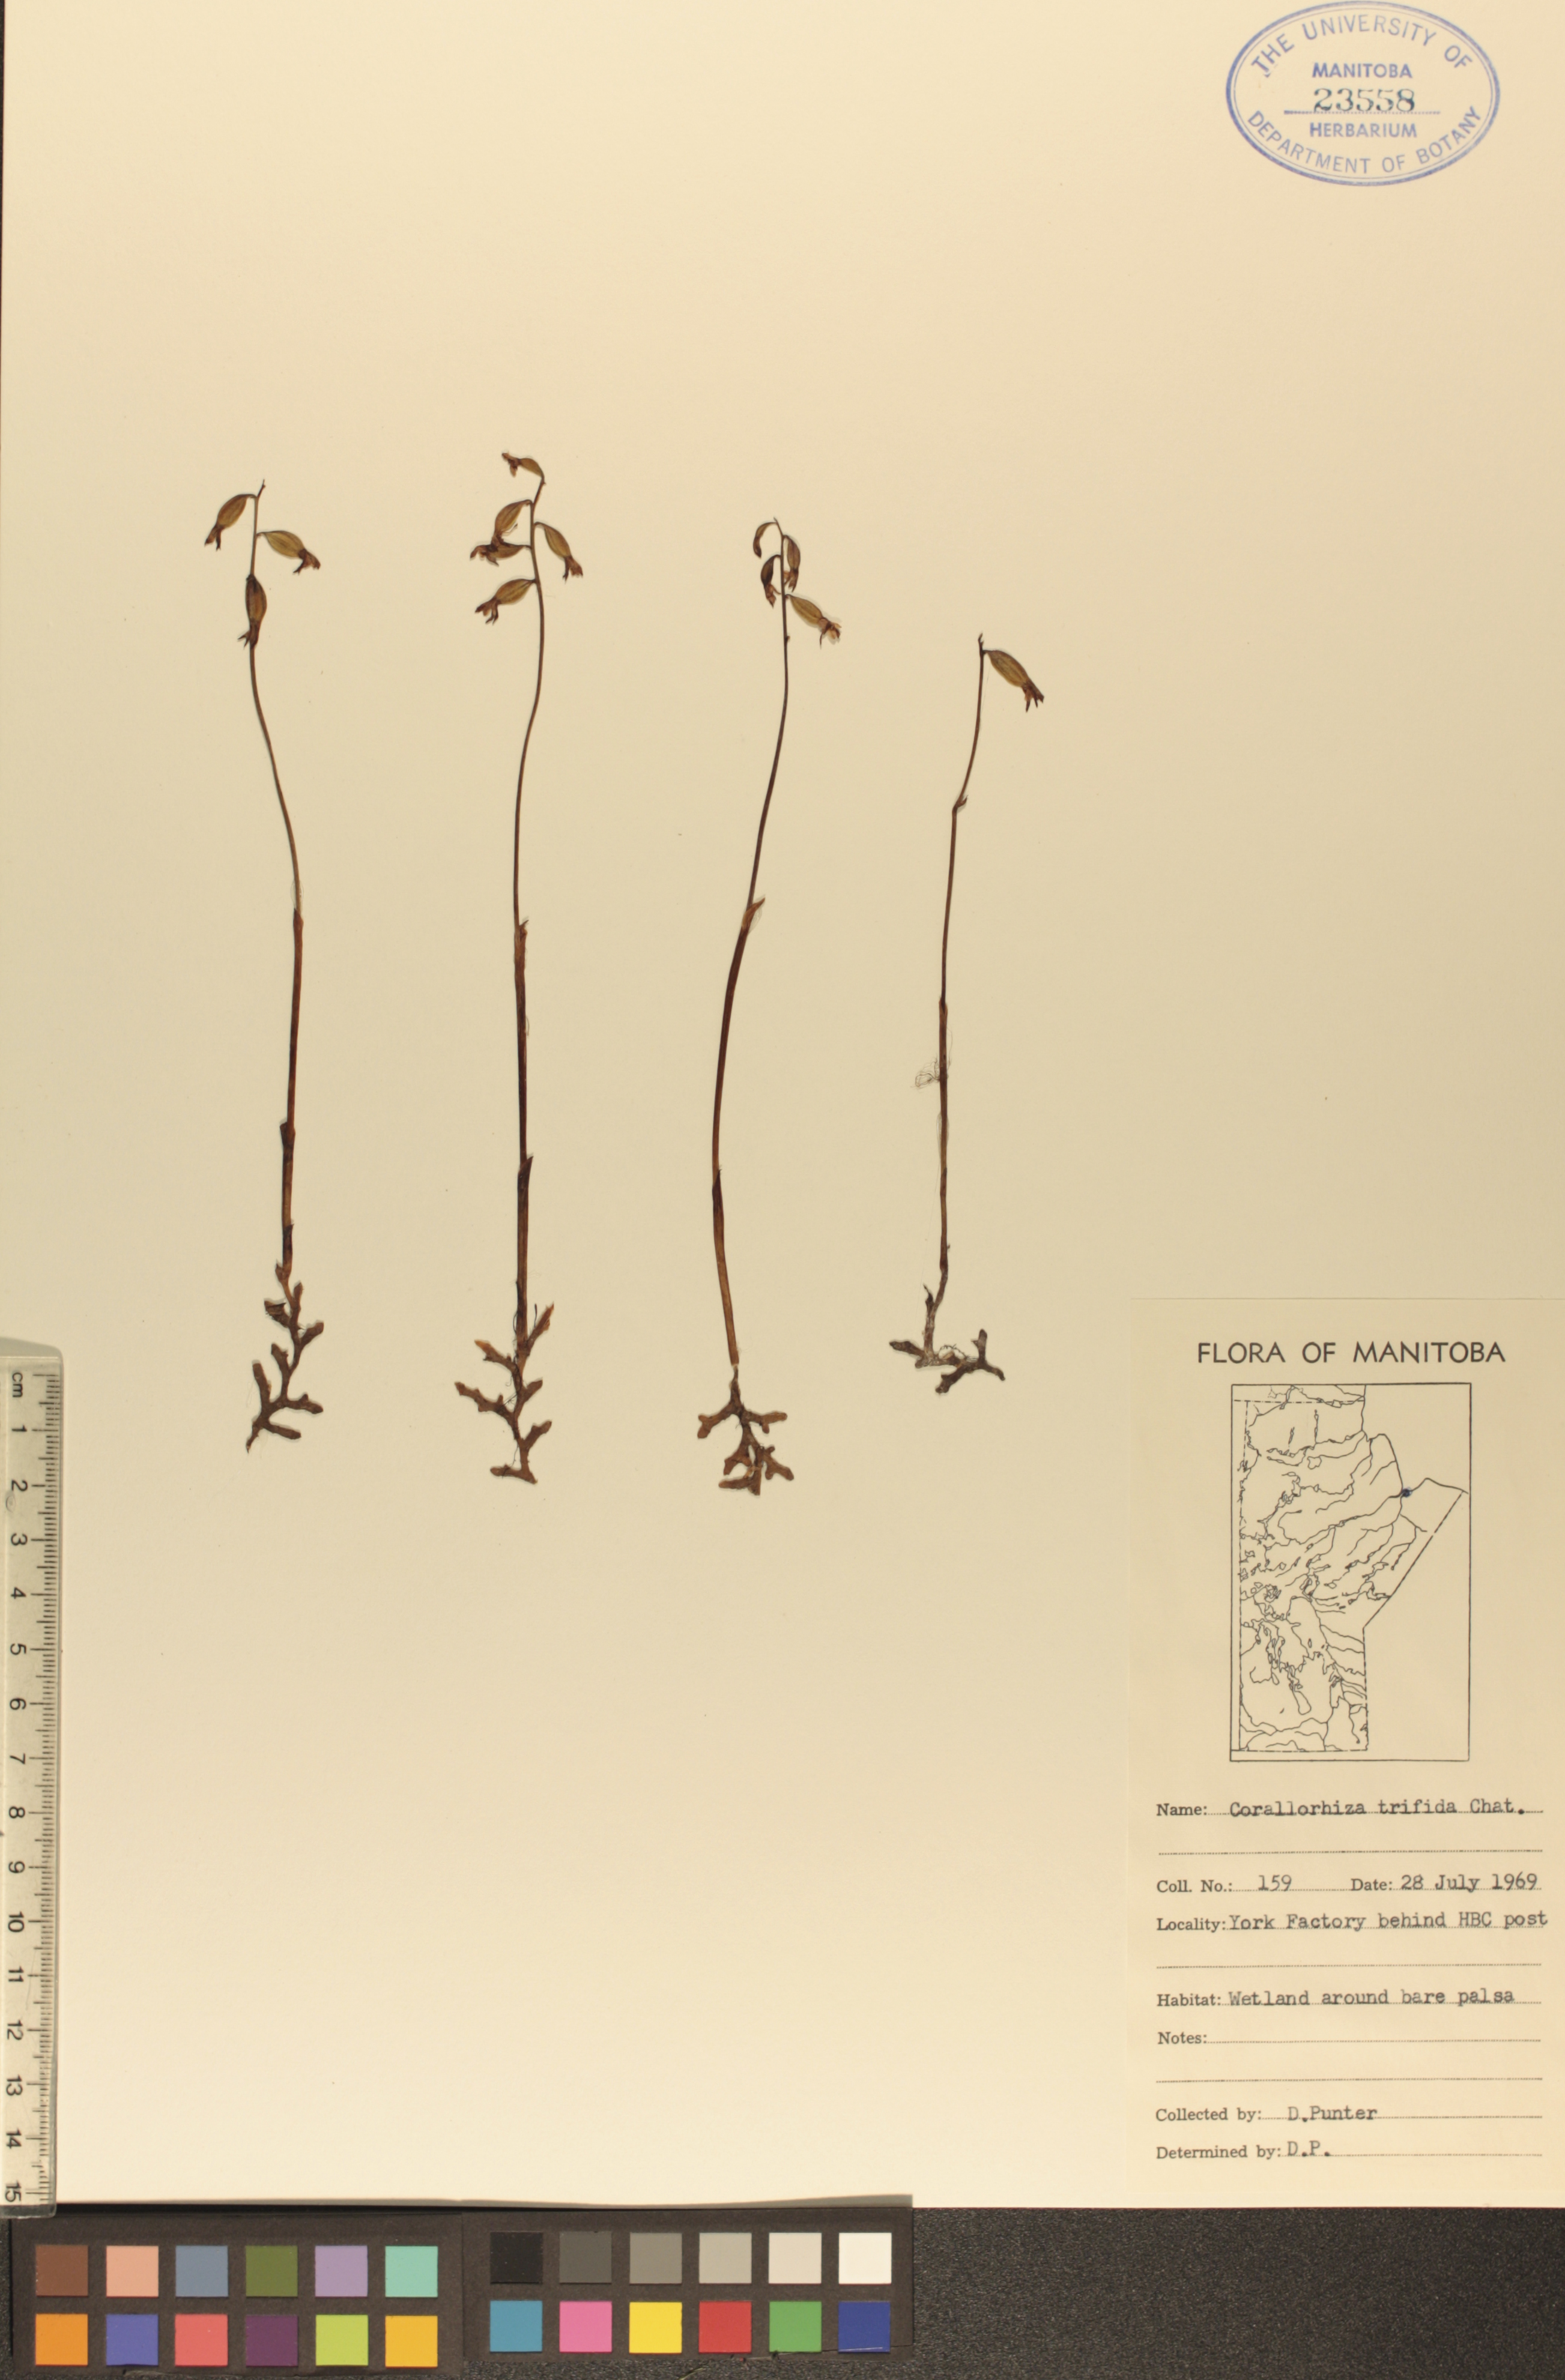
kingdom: Plantae
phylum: Tracheophyta
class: Liliopsida
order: Asparagales
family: Orchidaceae
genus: Corallorhiza
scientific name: Corallorhiza trifida
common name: Yellow coralroot
